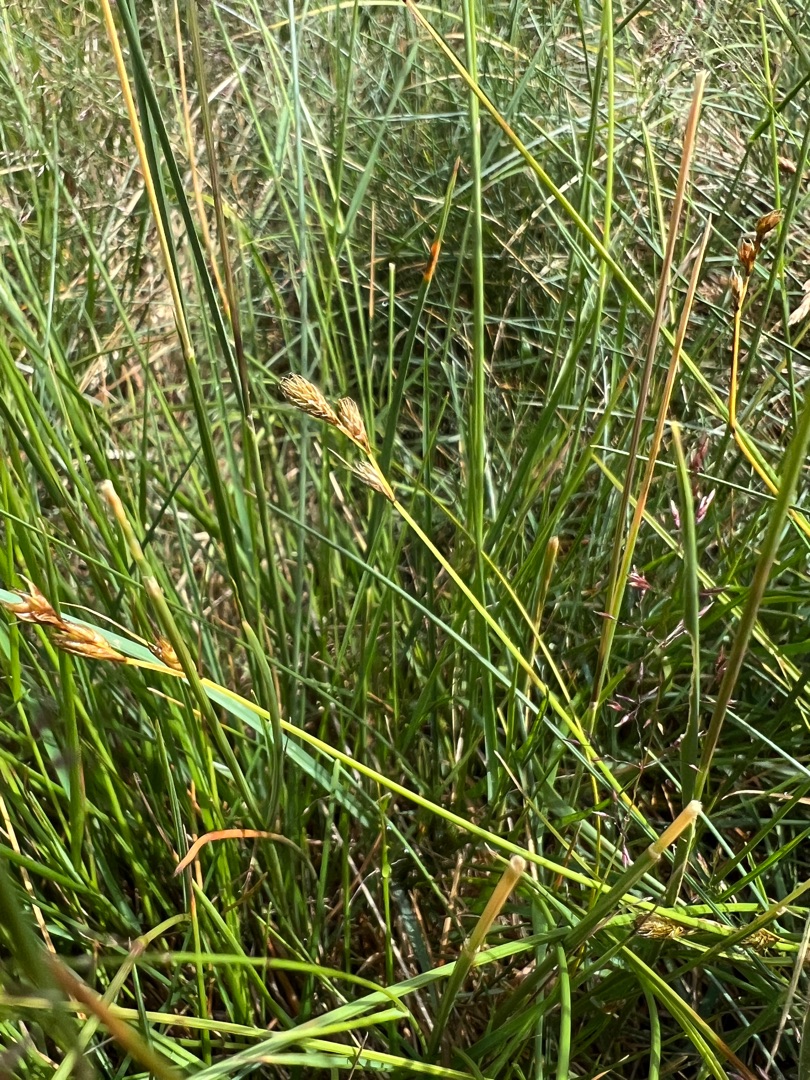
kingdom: Plantae
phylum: Tracheophyta
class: Liliopsida
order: Poales
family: Cyperaceae
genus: Carex
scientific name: Carex leporina
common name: Hare-star
